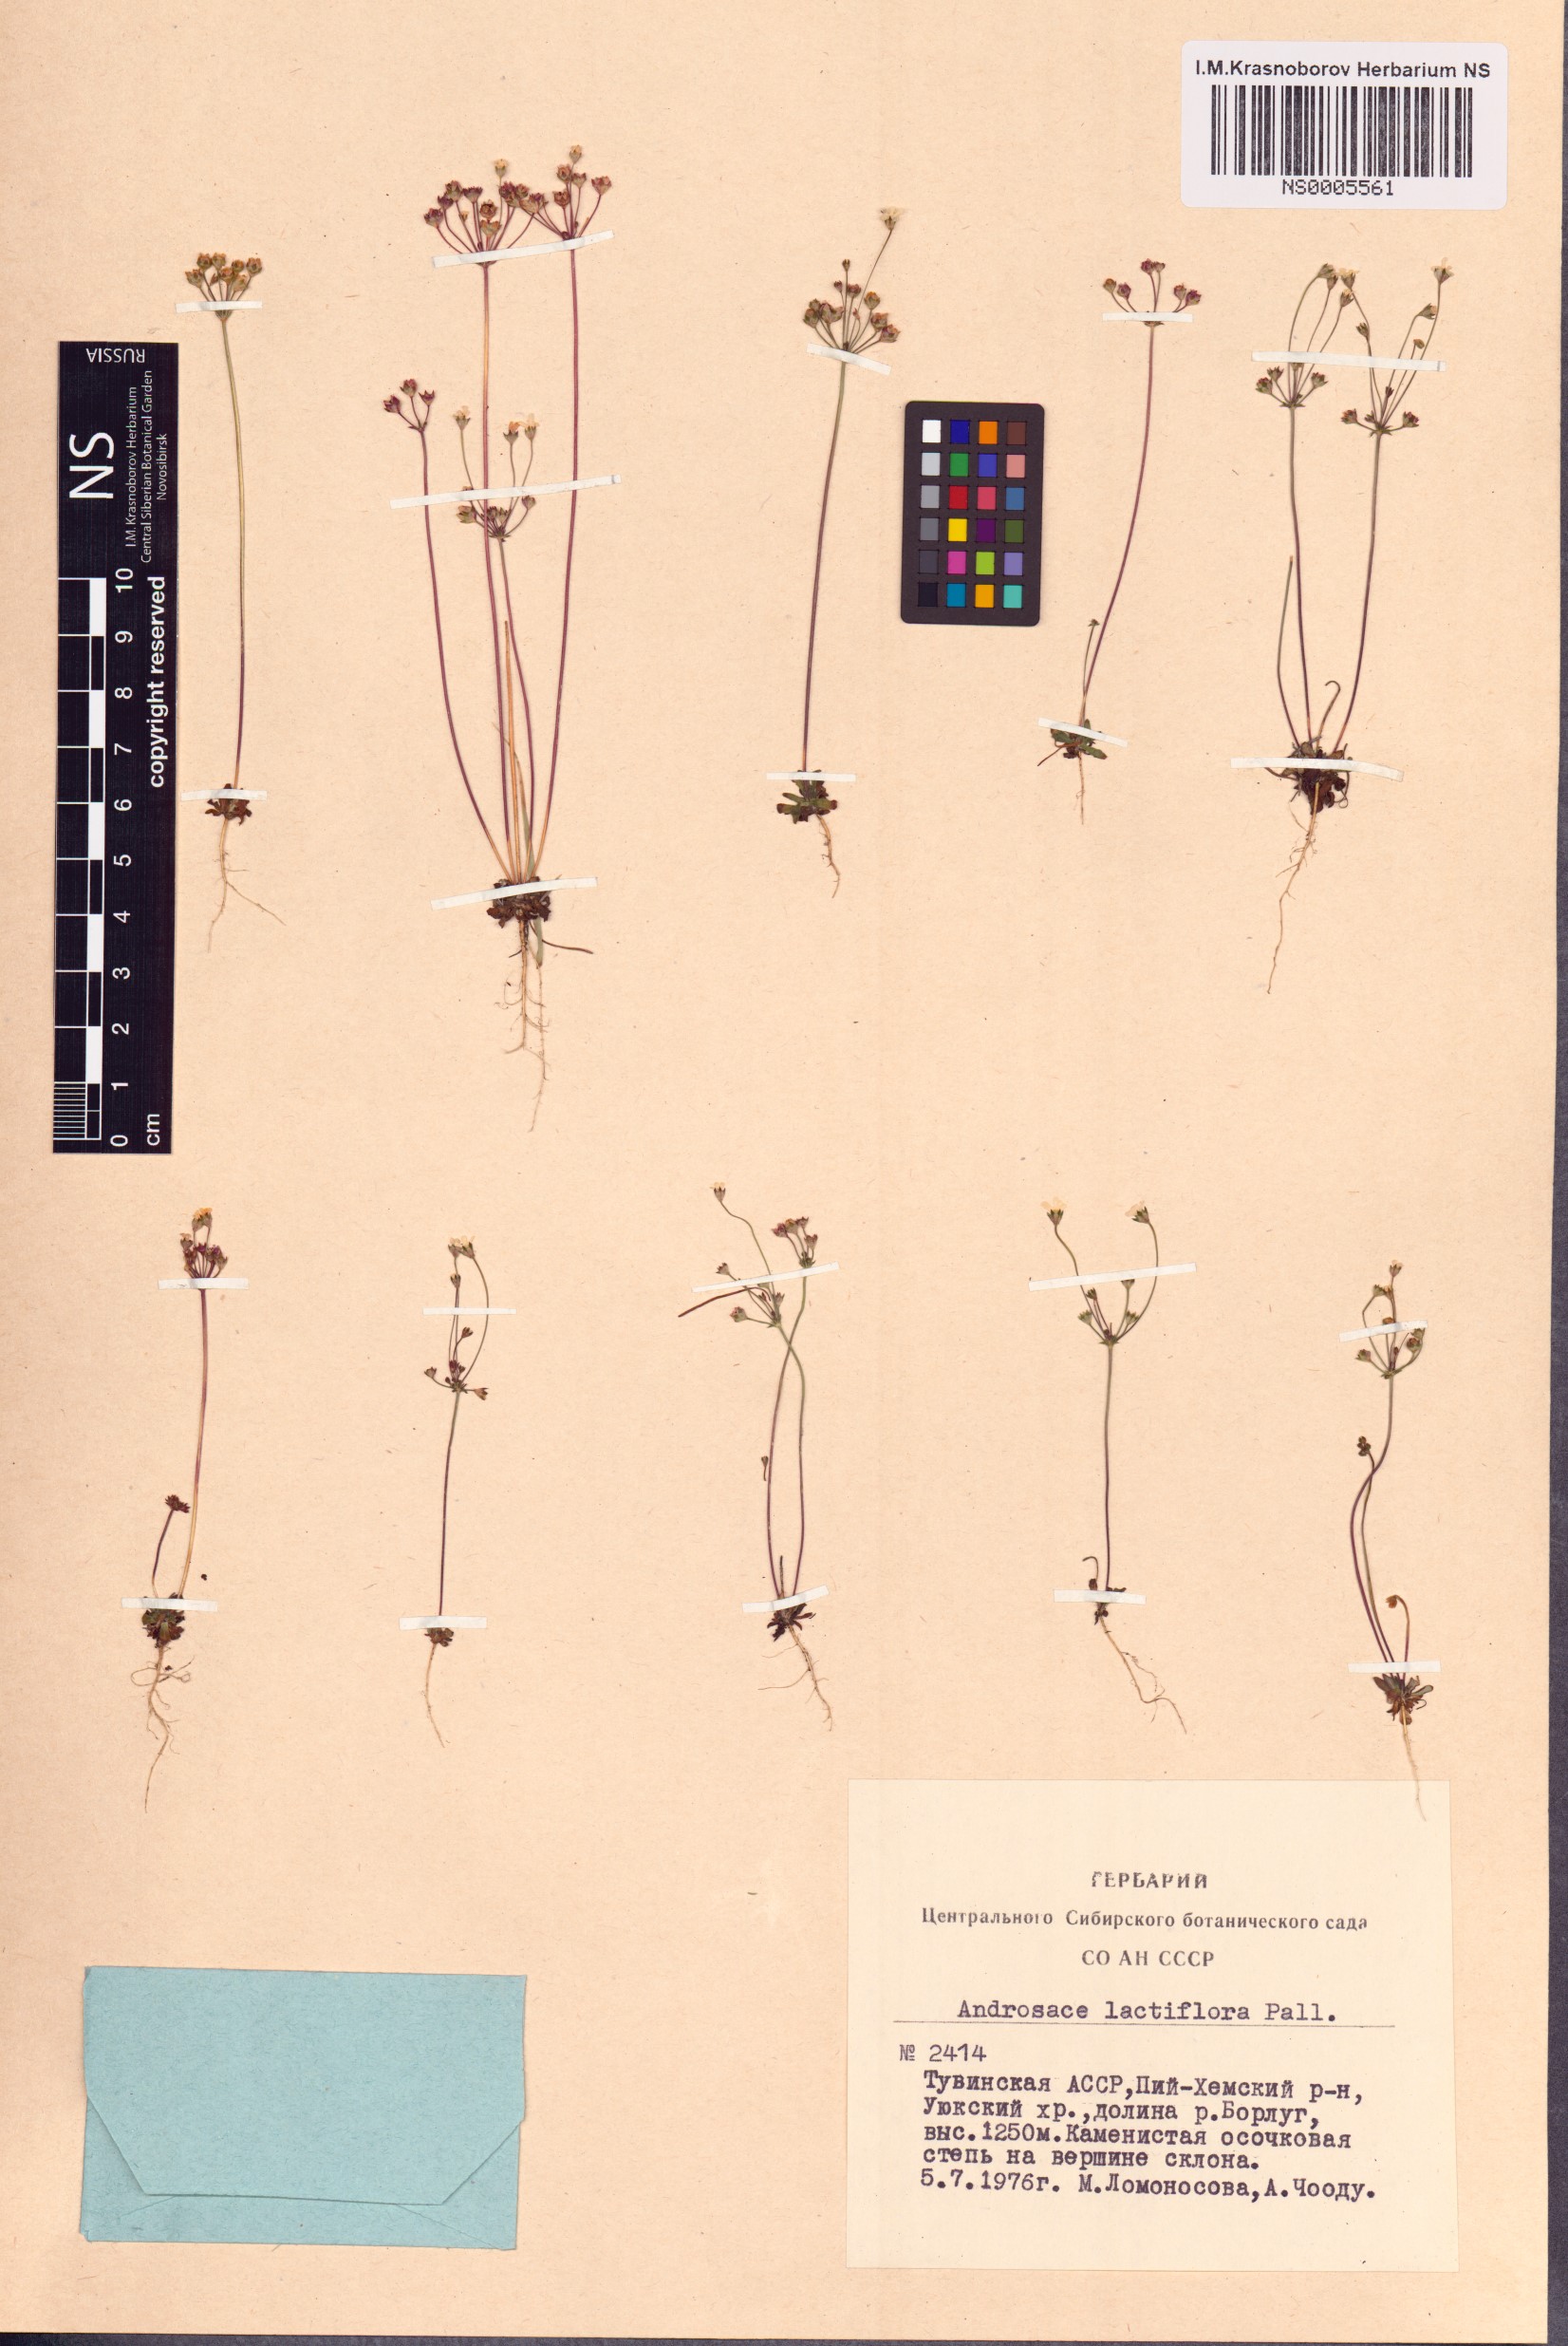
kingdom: Plantae
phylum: Tracheophyta
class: Magnoliopsida
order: Ericales
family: Primulaceae
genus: Androsace
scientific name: Androsace lactiflora
